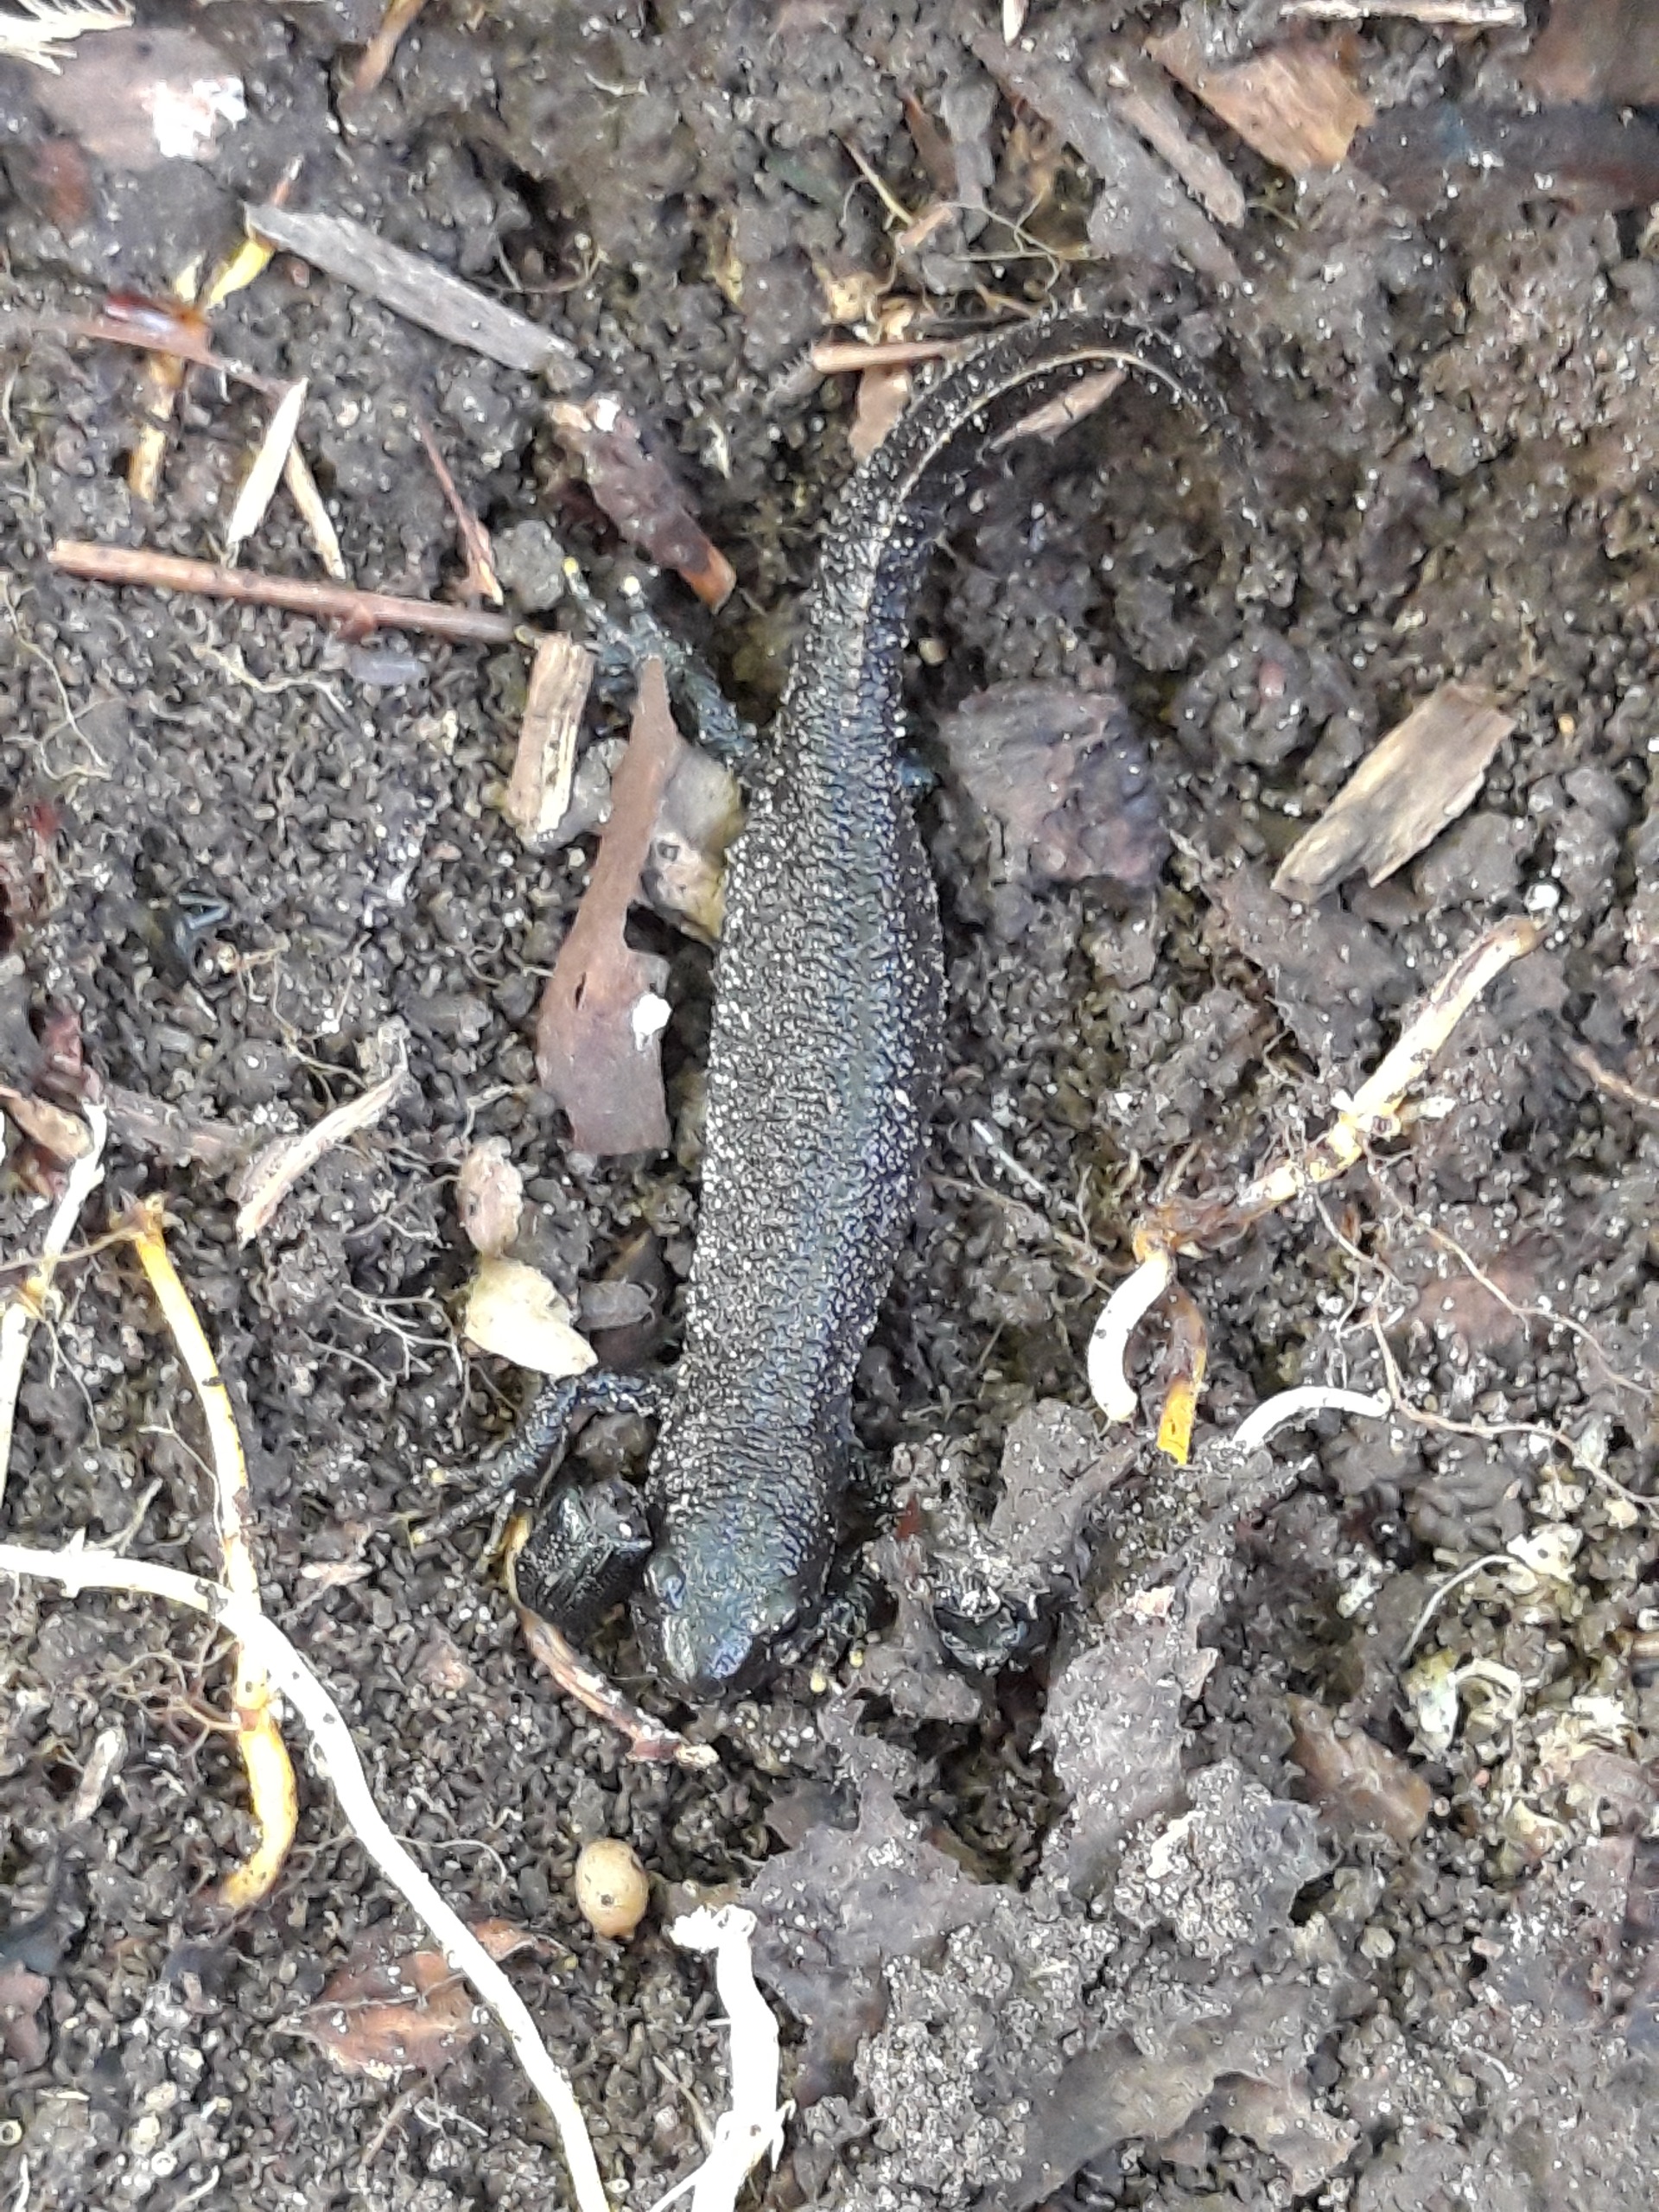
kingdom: Animalia
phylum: Chordata
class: Amphibia
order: Caudata
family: Salamandridae
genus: Triturus
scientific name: Triturus cristatus
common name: Stor vandsalamander
